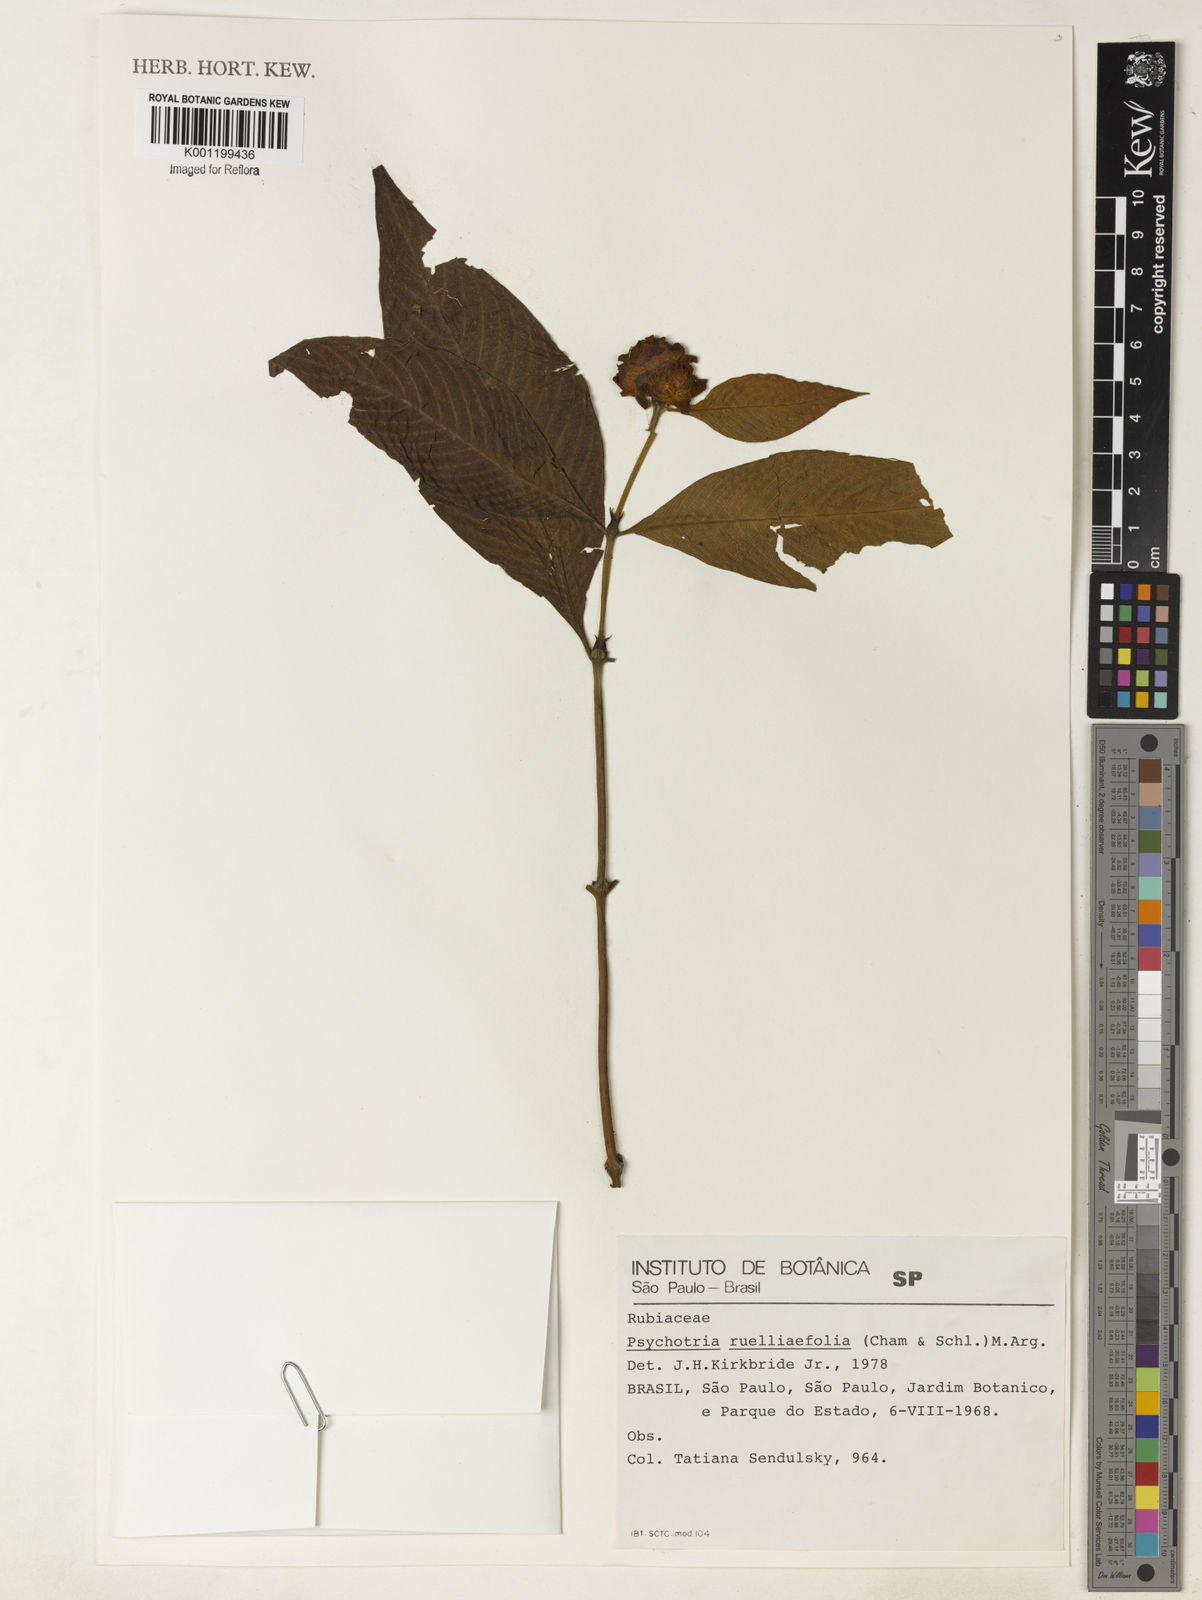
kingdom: Plantae
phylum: Tracheophyta
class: Magnoliopsida
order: Gentianales
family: Rubiaceae
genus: Psychotria
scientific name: Psychotria
